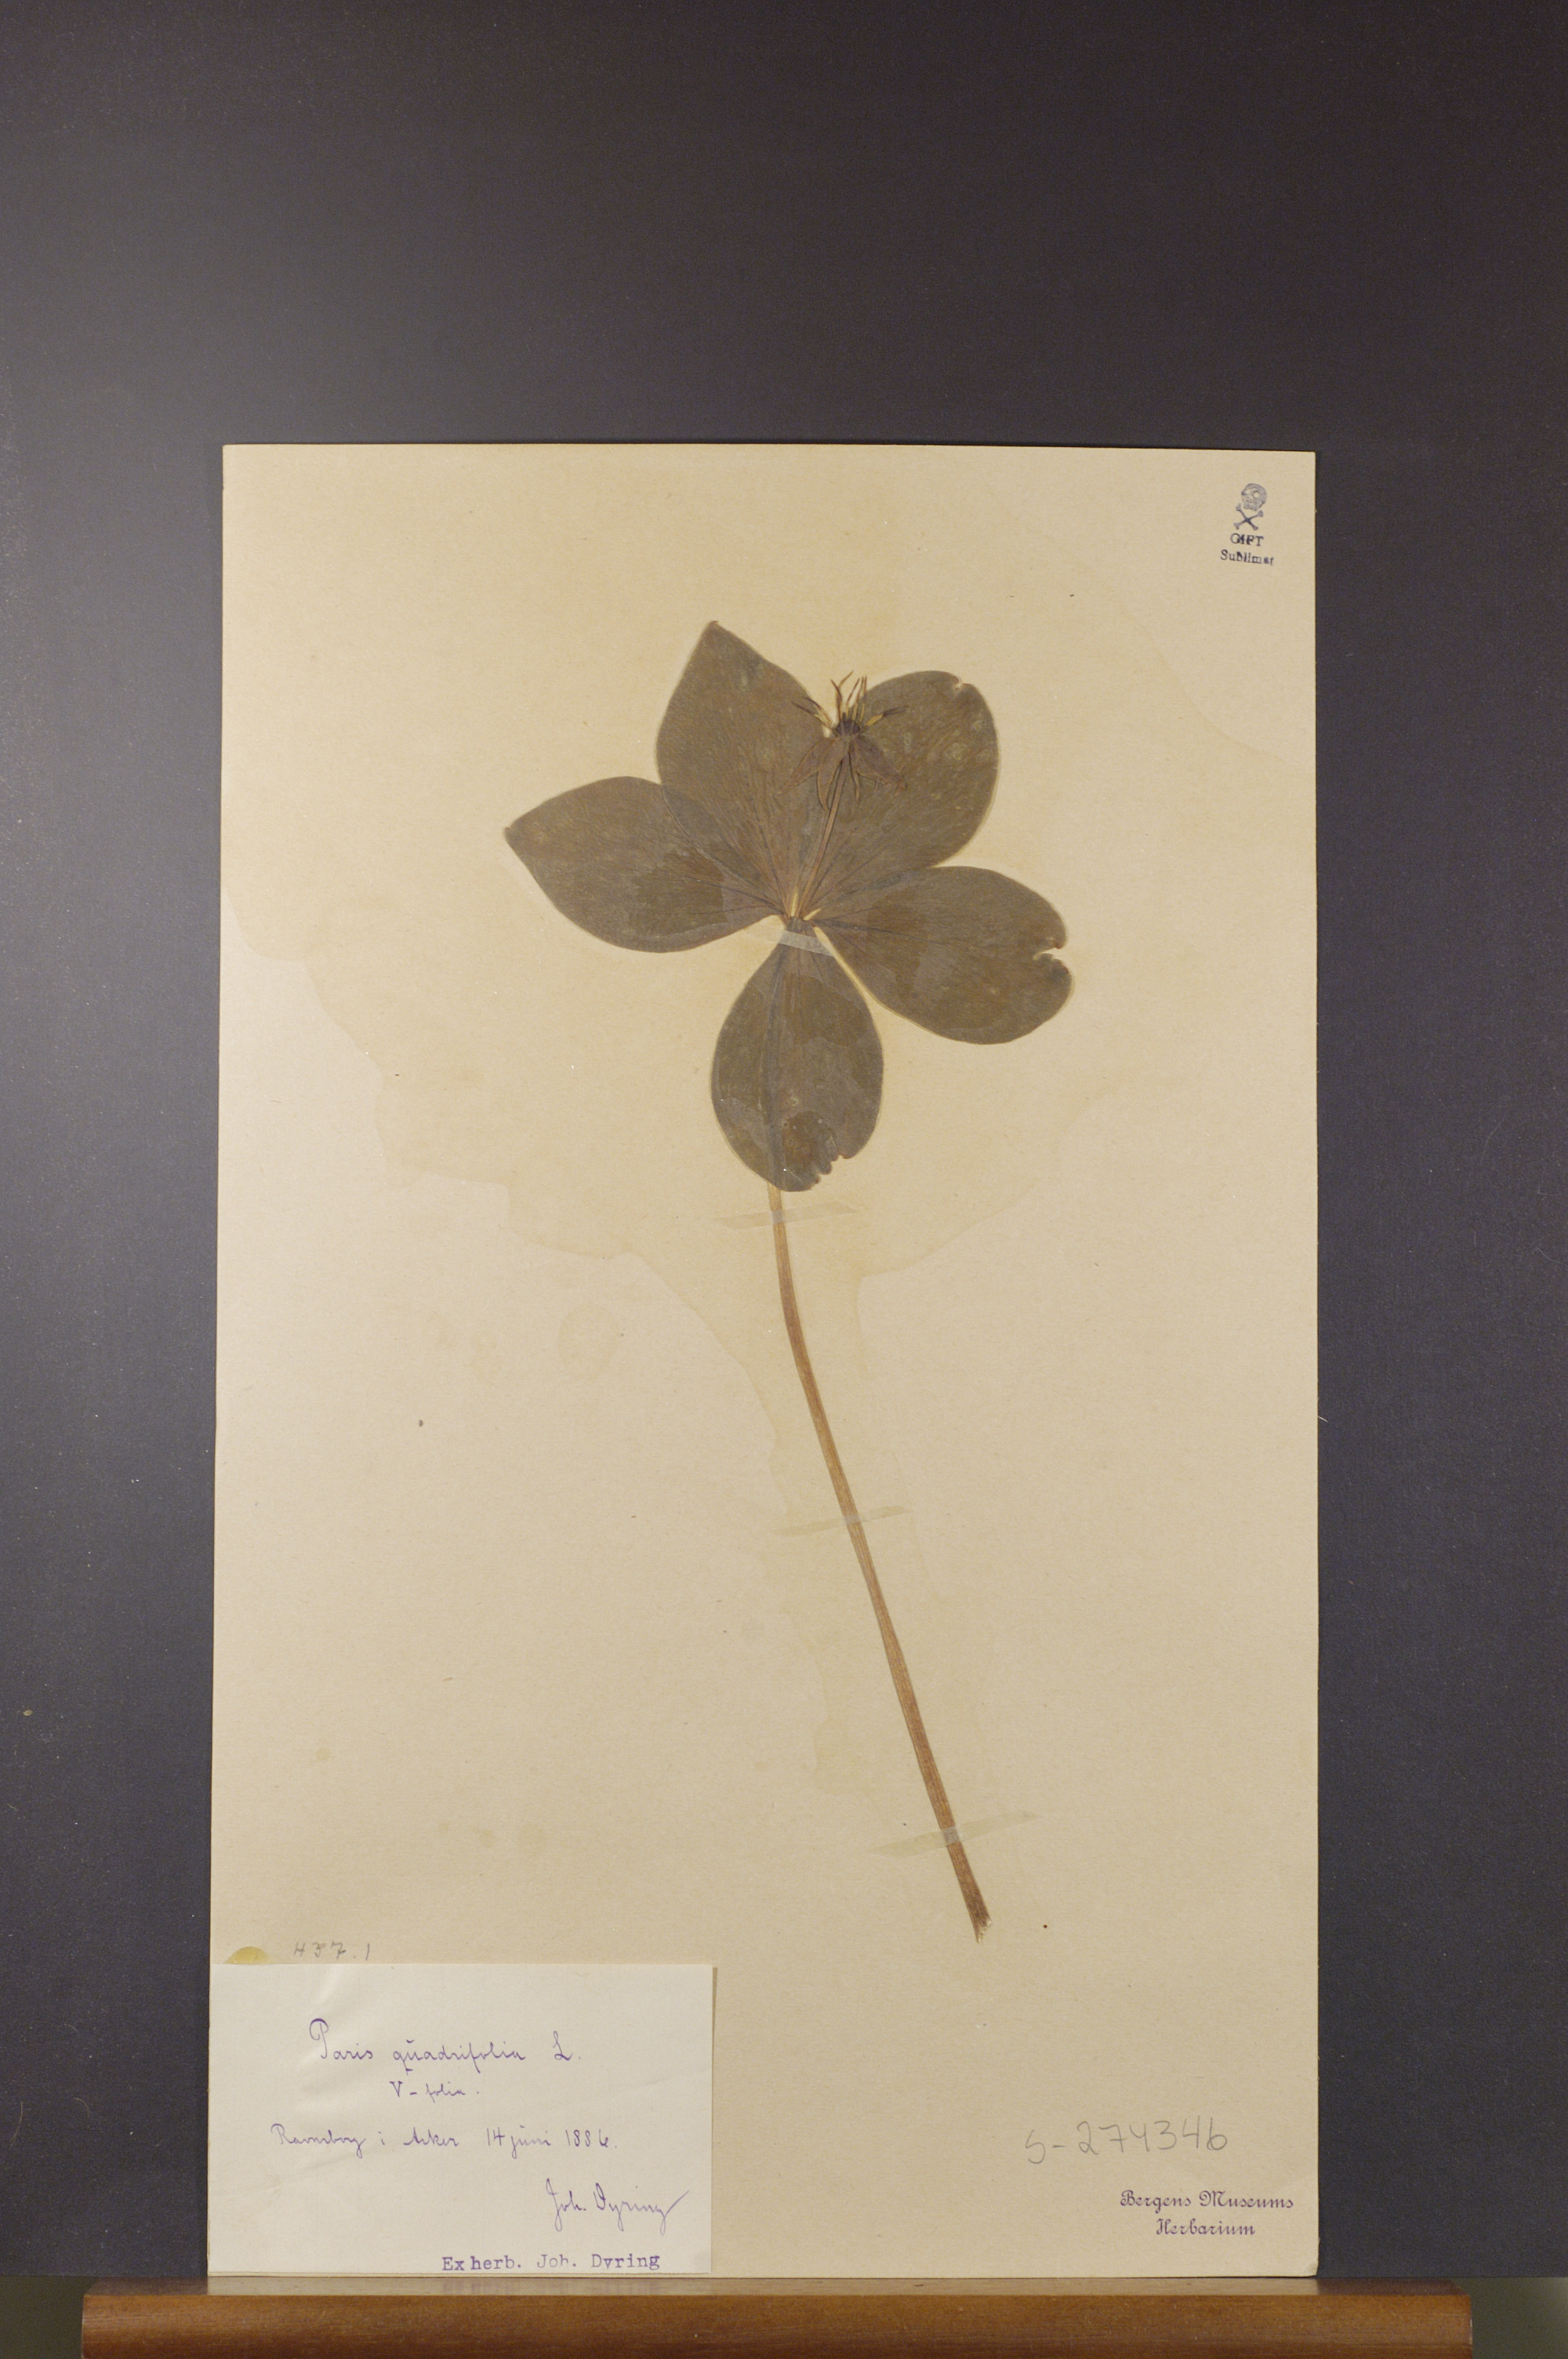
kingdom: Plantae
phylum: Tracheophyta
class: Liliopsida
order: Liliales
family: Melanthiaceae
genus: Paris
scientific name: Paris quadrifolia
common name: Herb-paris
